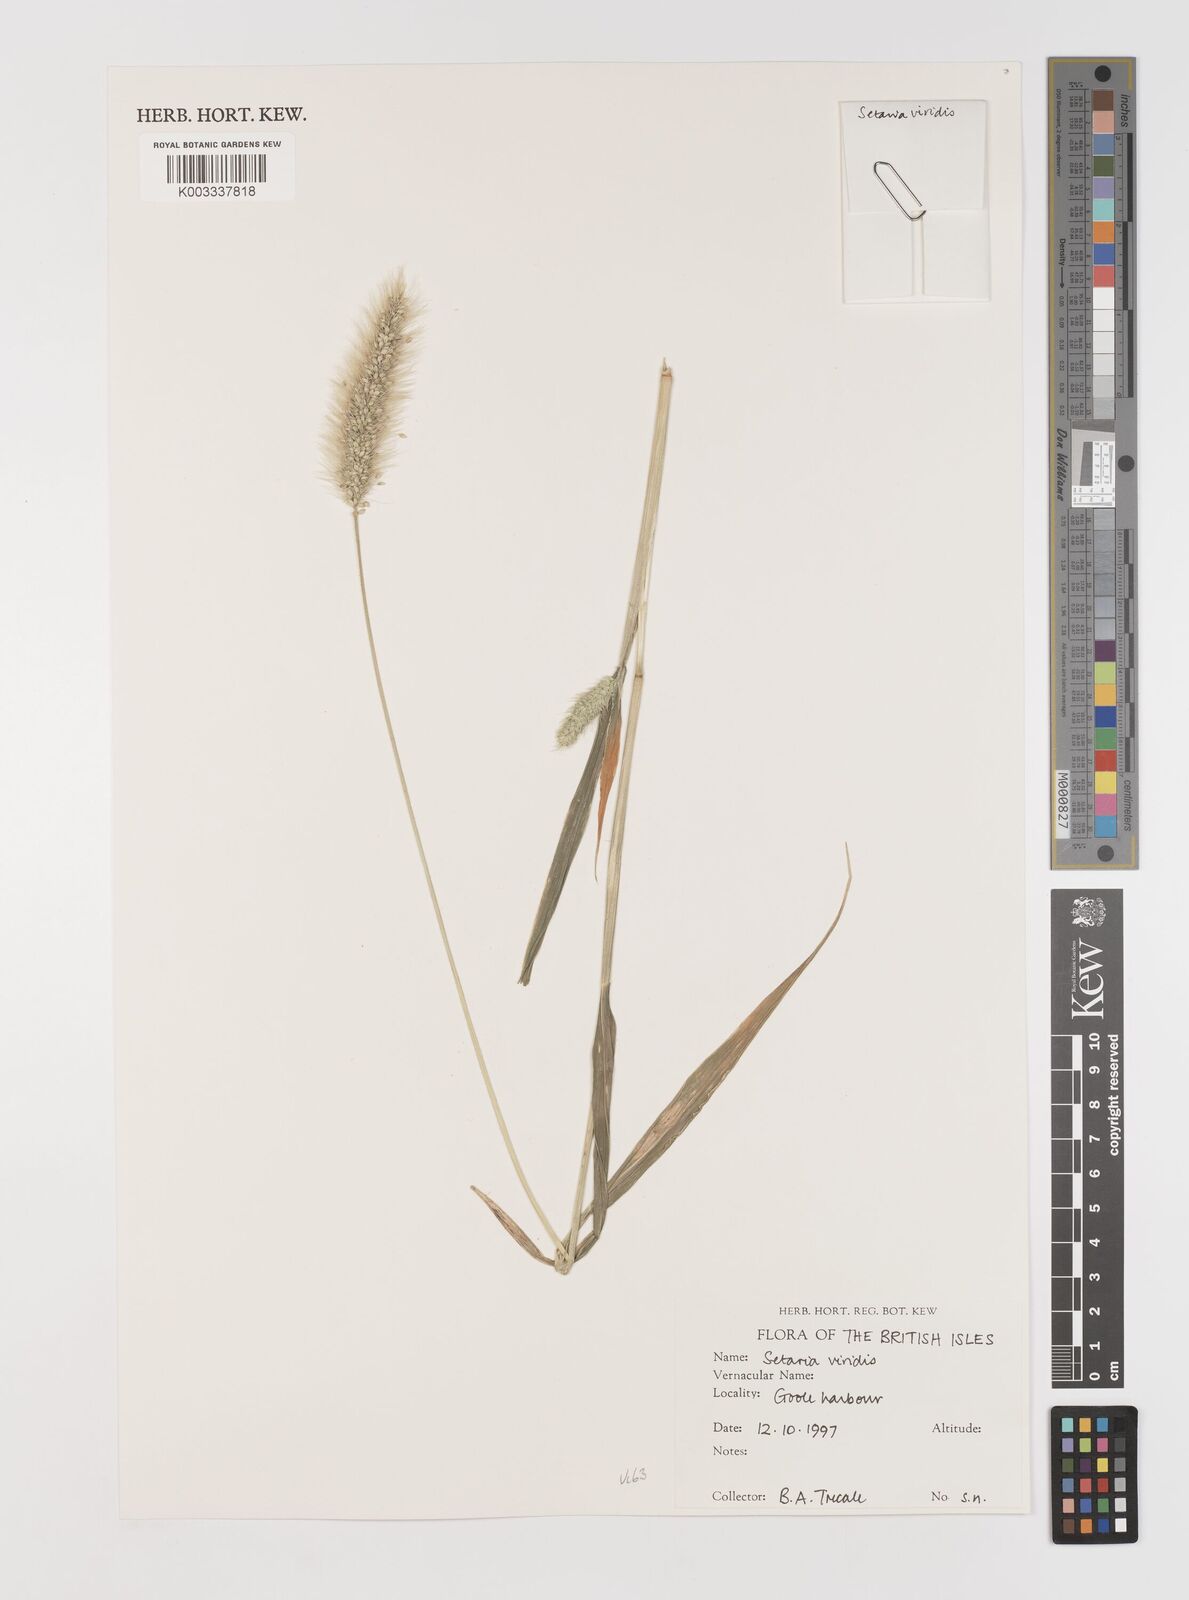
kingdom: Plantae
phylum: Tracheophyta
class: Liliopsida
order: Poales
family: Poaceae
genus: Setaria
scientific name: Setaria viridis
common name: Green bristlegrass
